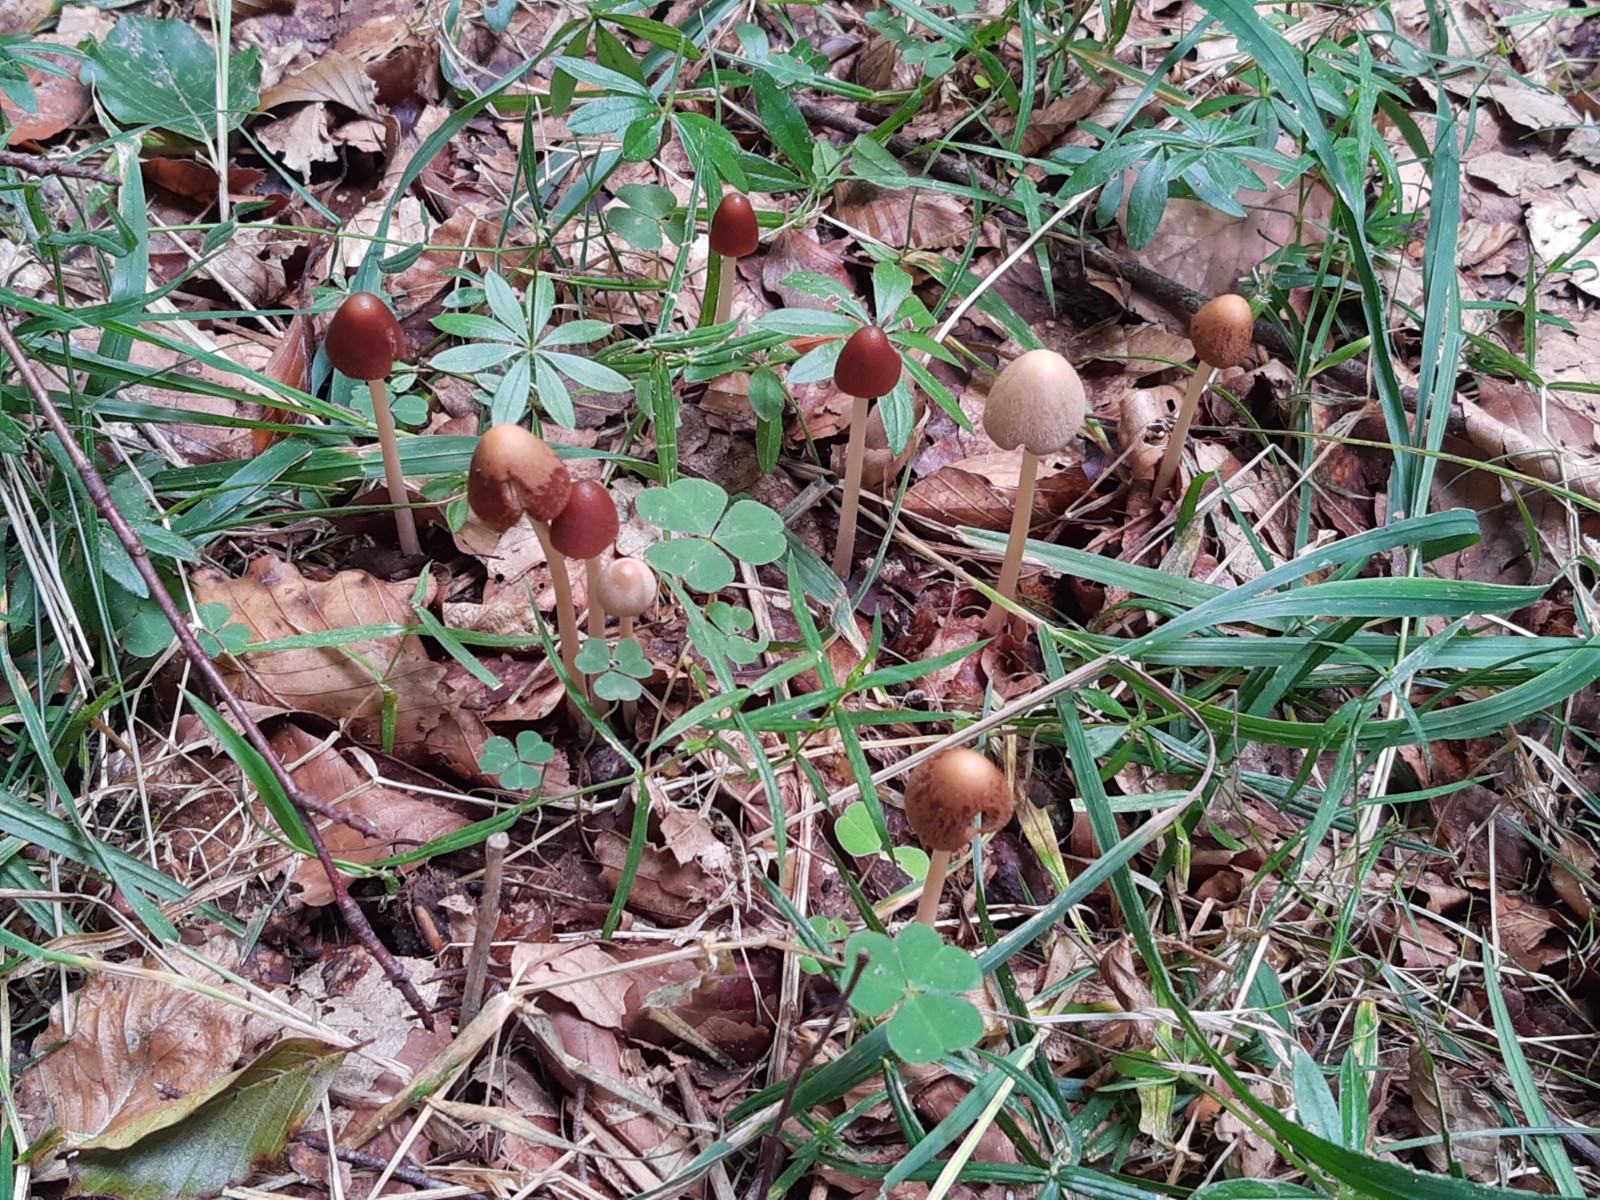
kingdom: Fungi
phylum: Basidiomycota
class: Agaricomycetes
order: Agaricales
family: Psathyrellaceae
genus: Parasola
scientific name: Parasola conopilea
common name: kegle-hjulhat
